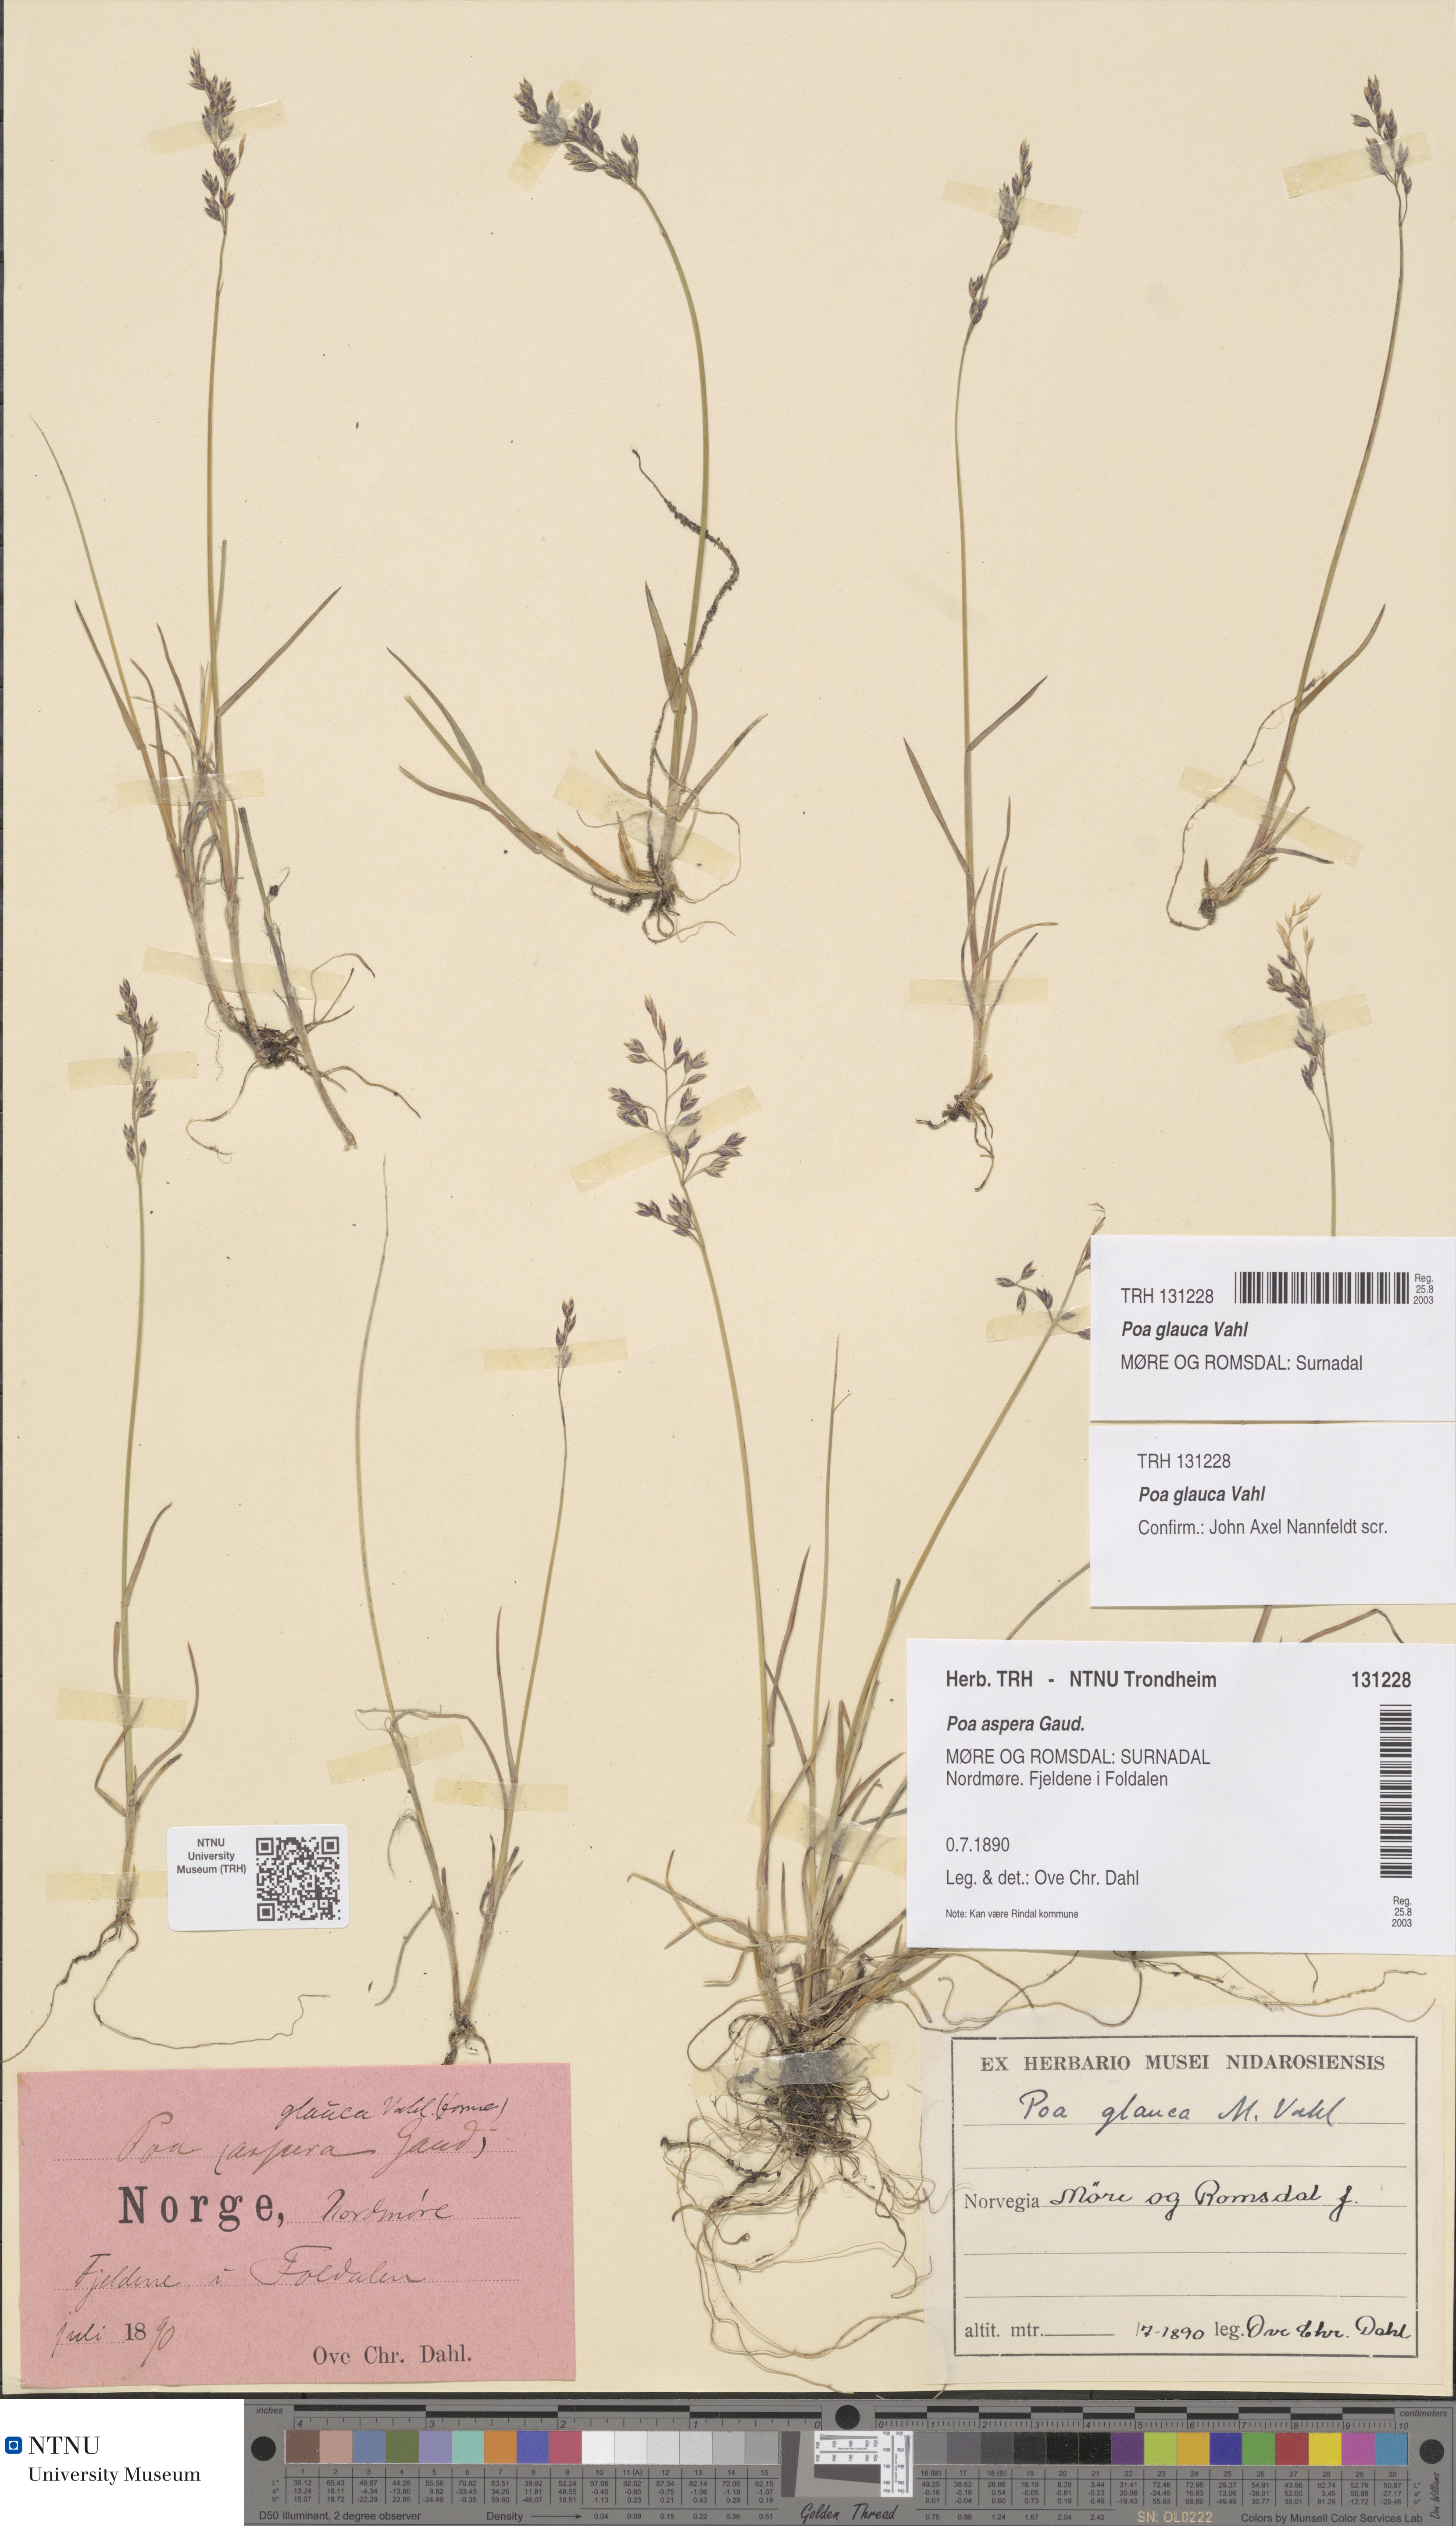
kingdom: Plantae
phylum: Tracheophyta
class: Liliopsida
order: Poales
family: Poaceae
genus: Poa
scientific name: Poa glauca
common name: Glaucous bluegrass
